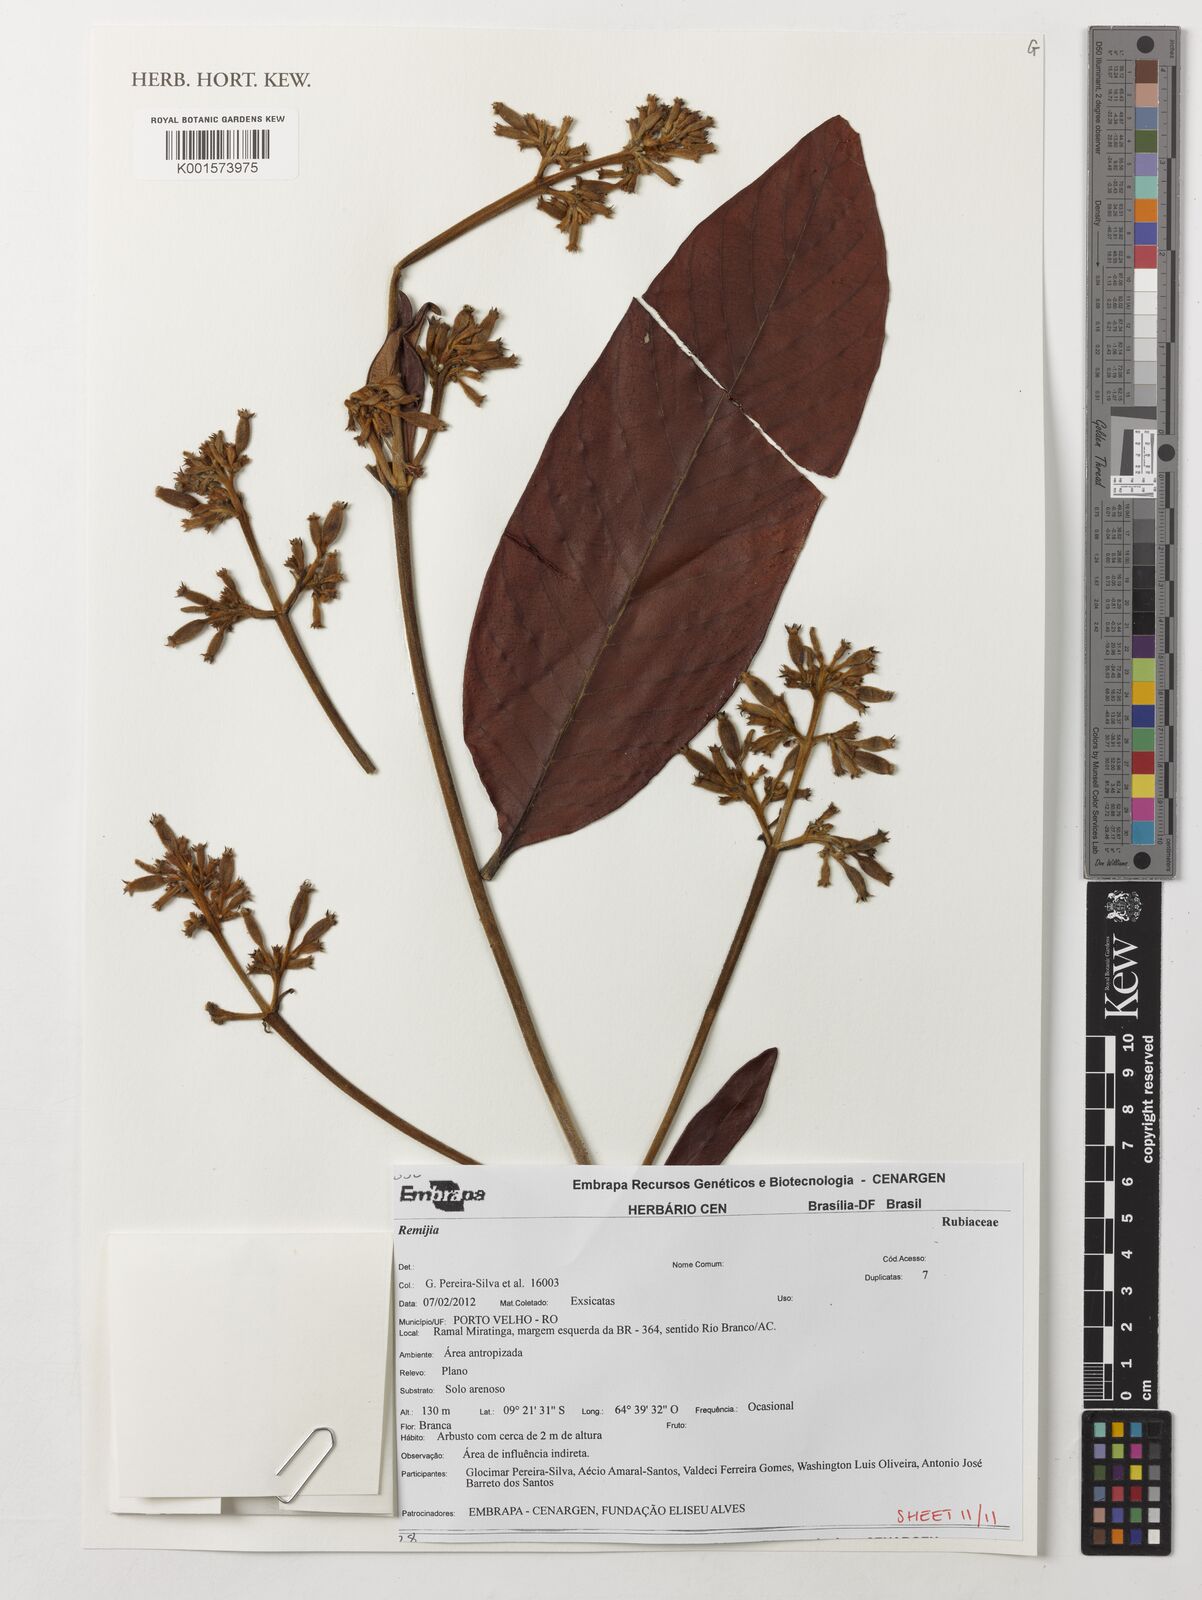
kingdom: Plantae
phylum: Tracheophyta
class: Magnoliopsida
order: Gentianales
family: Rubiaceae
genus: Remijia
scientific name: Remijia
